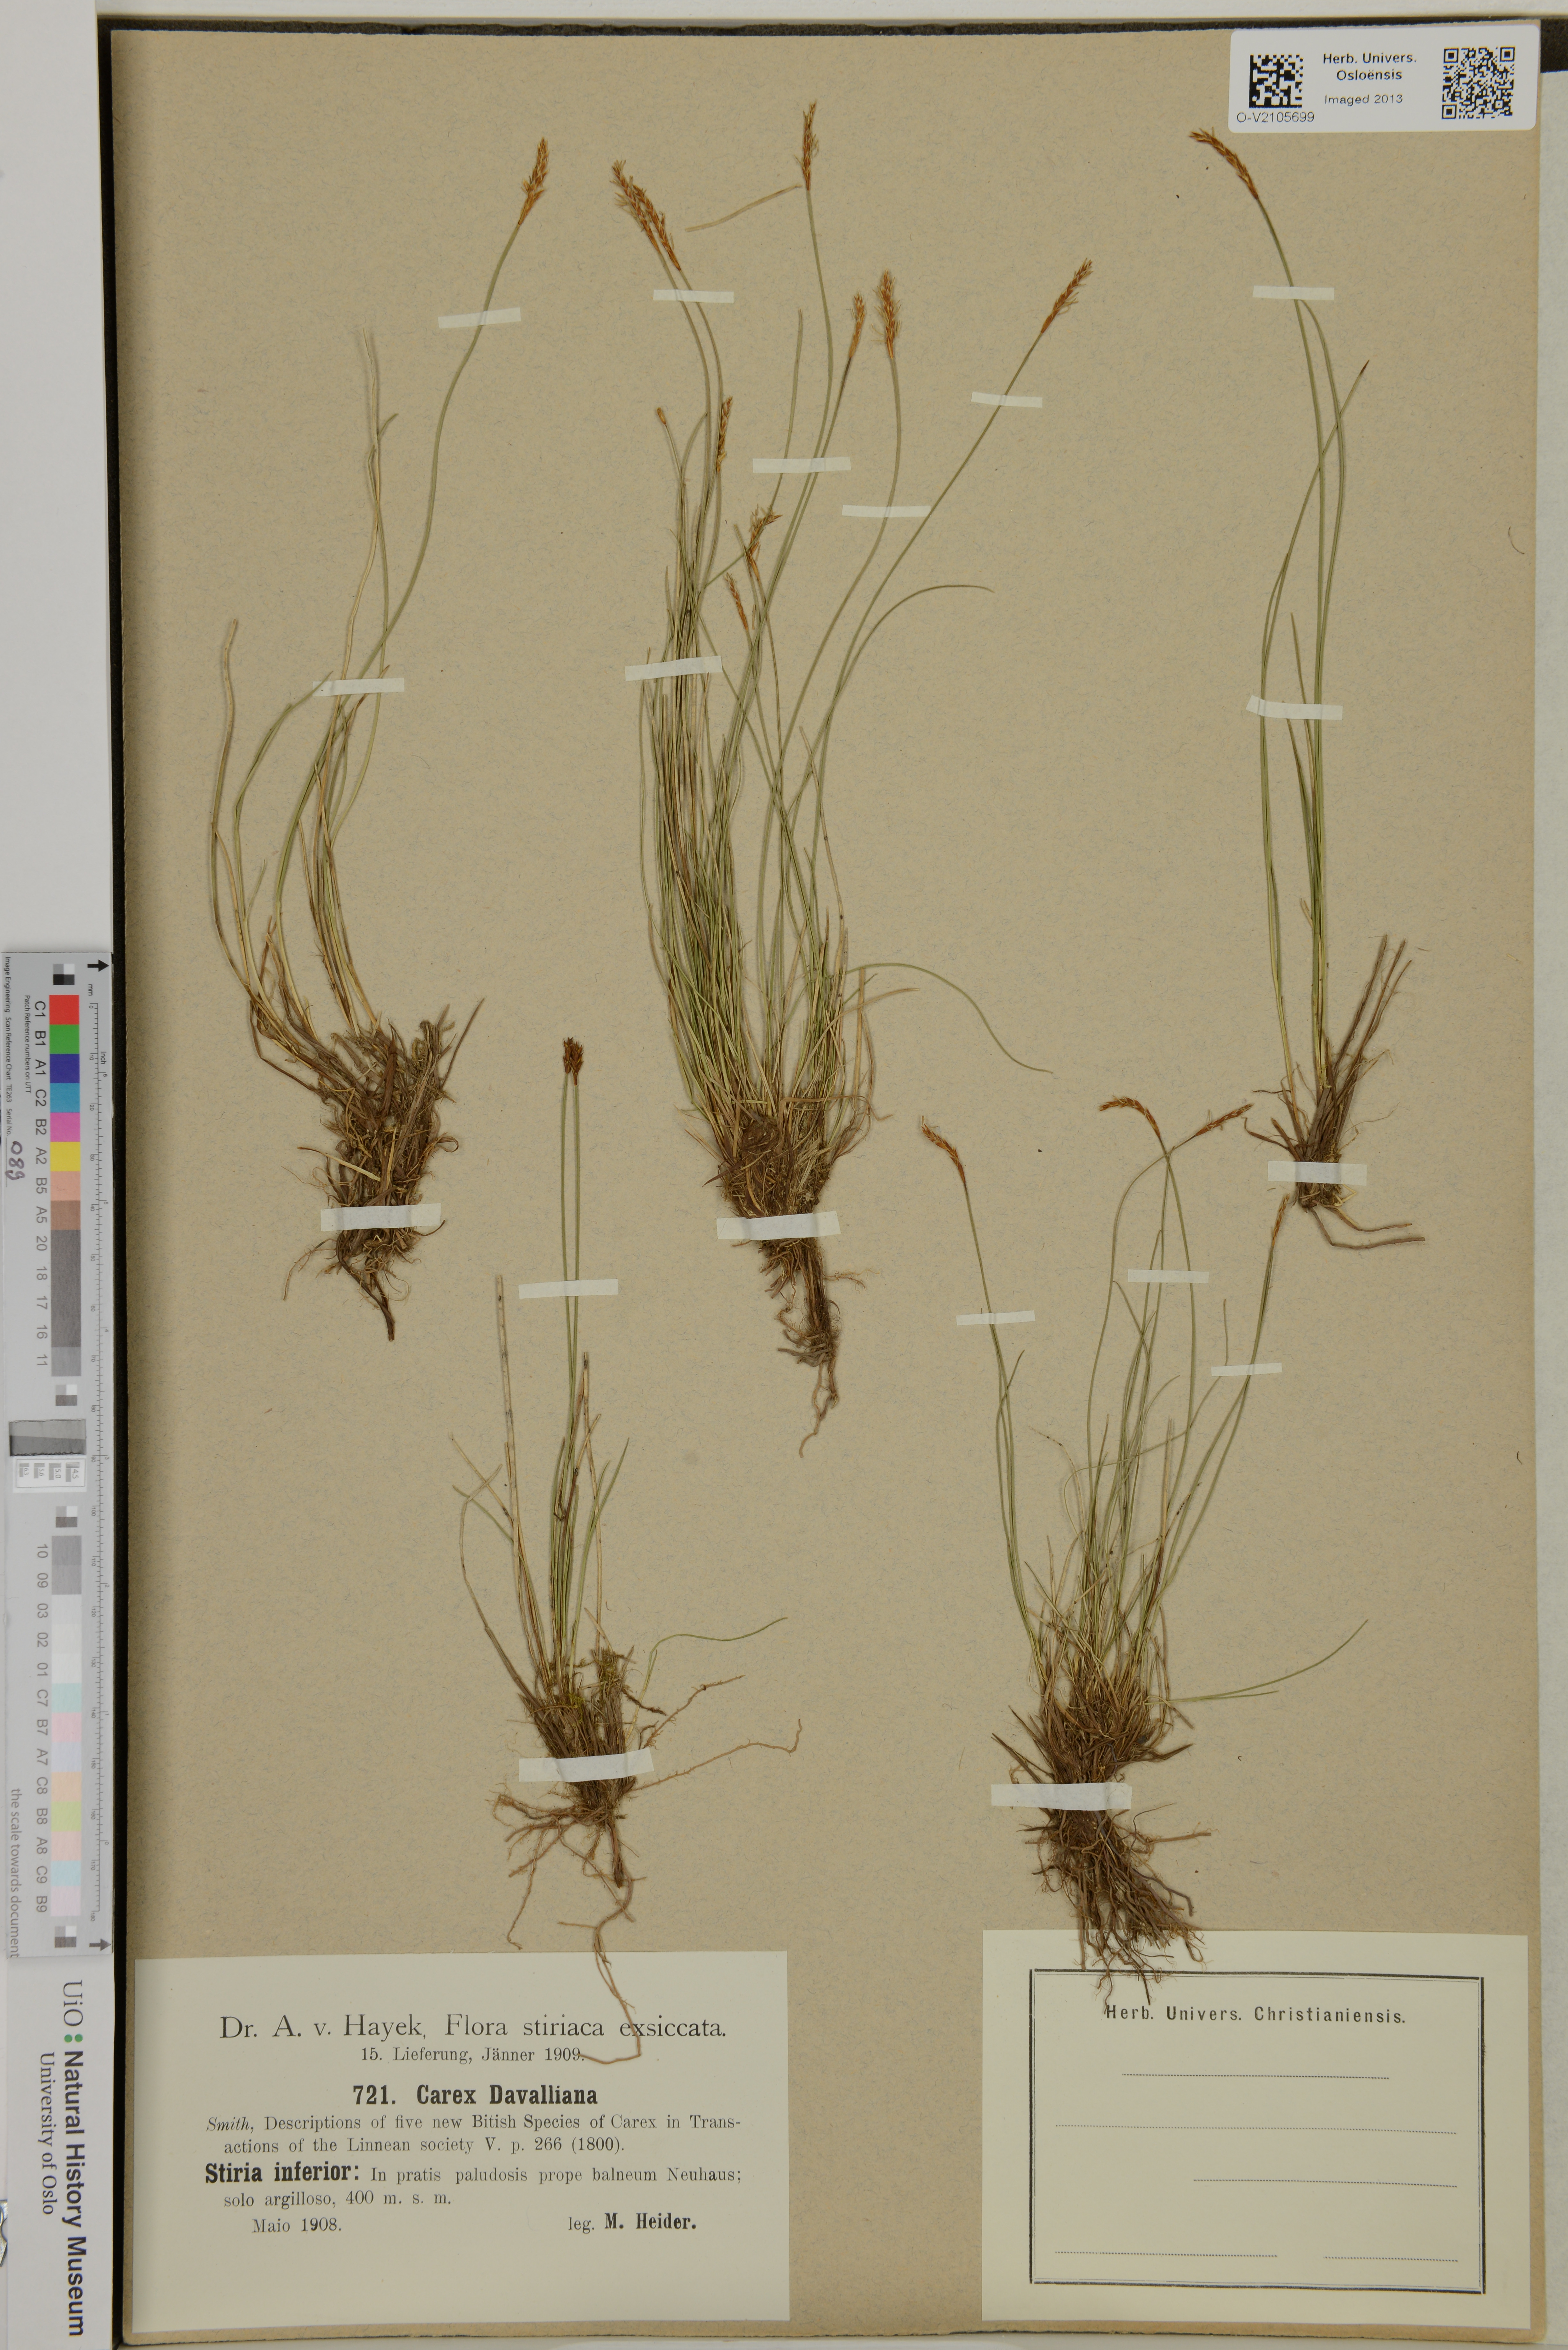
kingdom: Plantae
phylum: Tracheophyta
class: Liliopsida
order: Poales
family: Cyperaceae
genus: Carex
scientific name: Carex davalliana
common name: Davall's sedge
